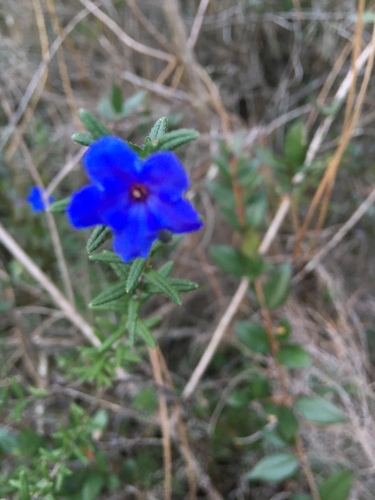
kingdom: Plantae
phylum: Tracheophyta
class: Magnoliopsida
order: Boraginales
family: Boraginaceae
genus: Glandora
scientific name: Glandora prostrata
